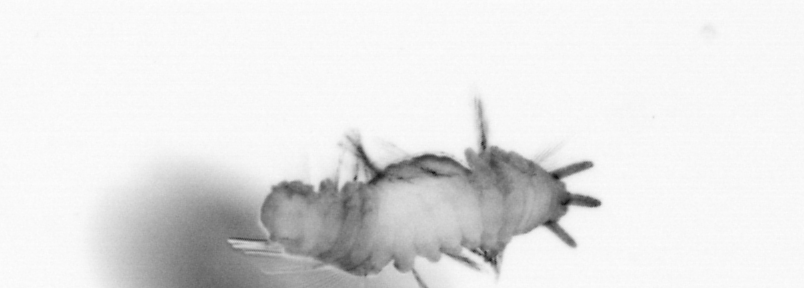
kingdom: Animalia
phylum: Annelida
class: Polychaeta
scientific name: Polychaeta
